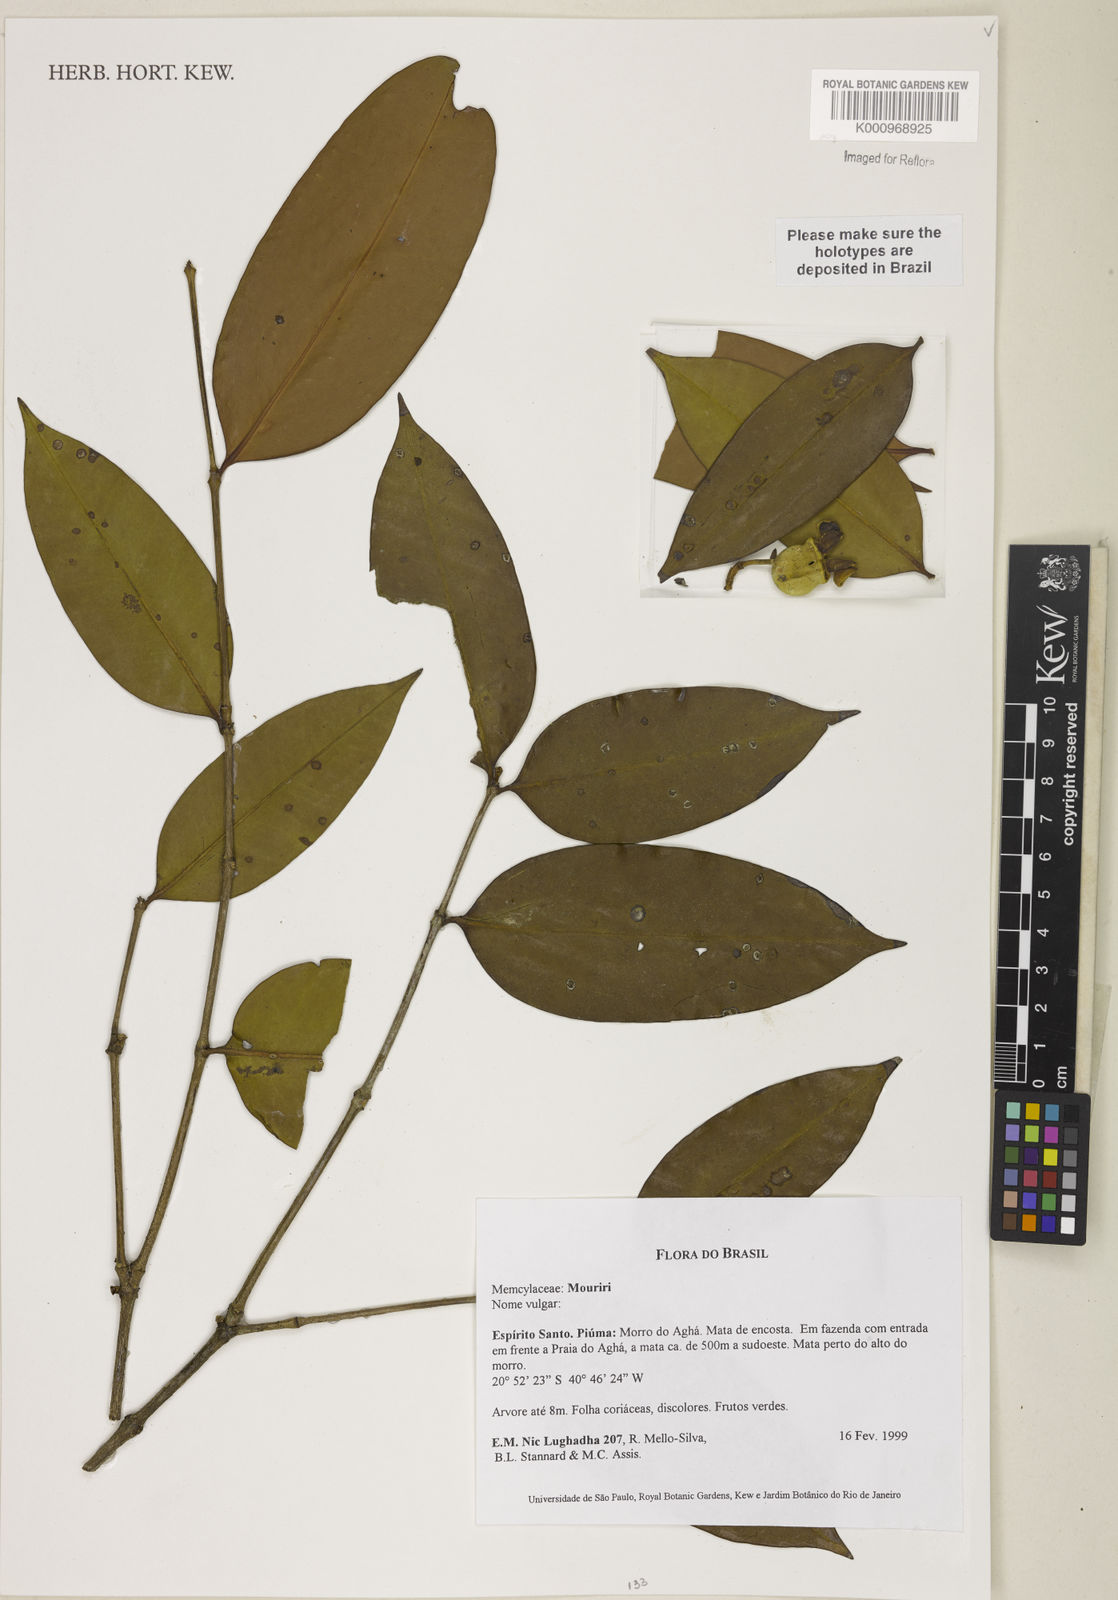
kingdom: Plantae
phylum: Tracheophyta
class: Magnoliopsida
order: Myrtales
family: Melastomataceae
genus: Mouriri
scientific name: Mouriri
